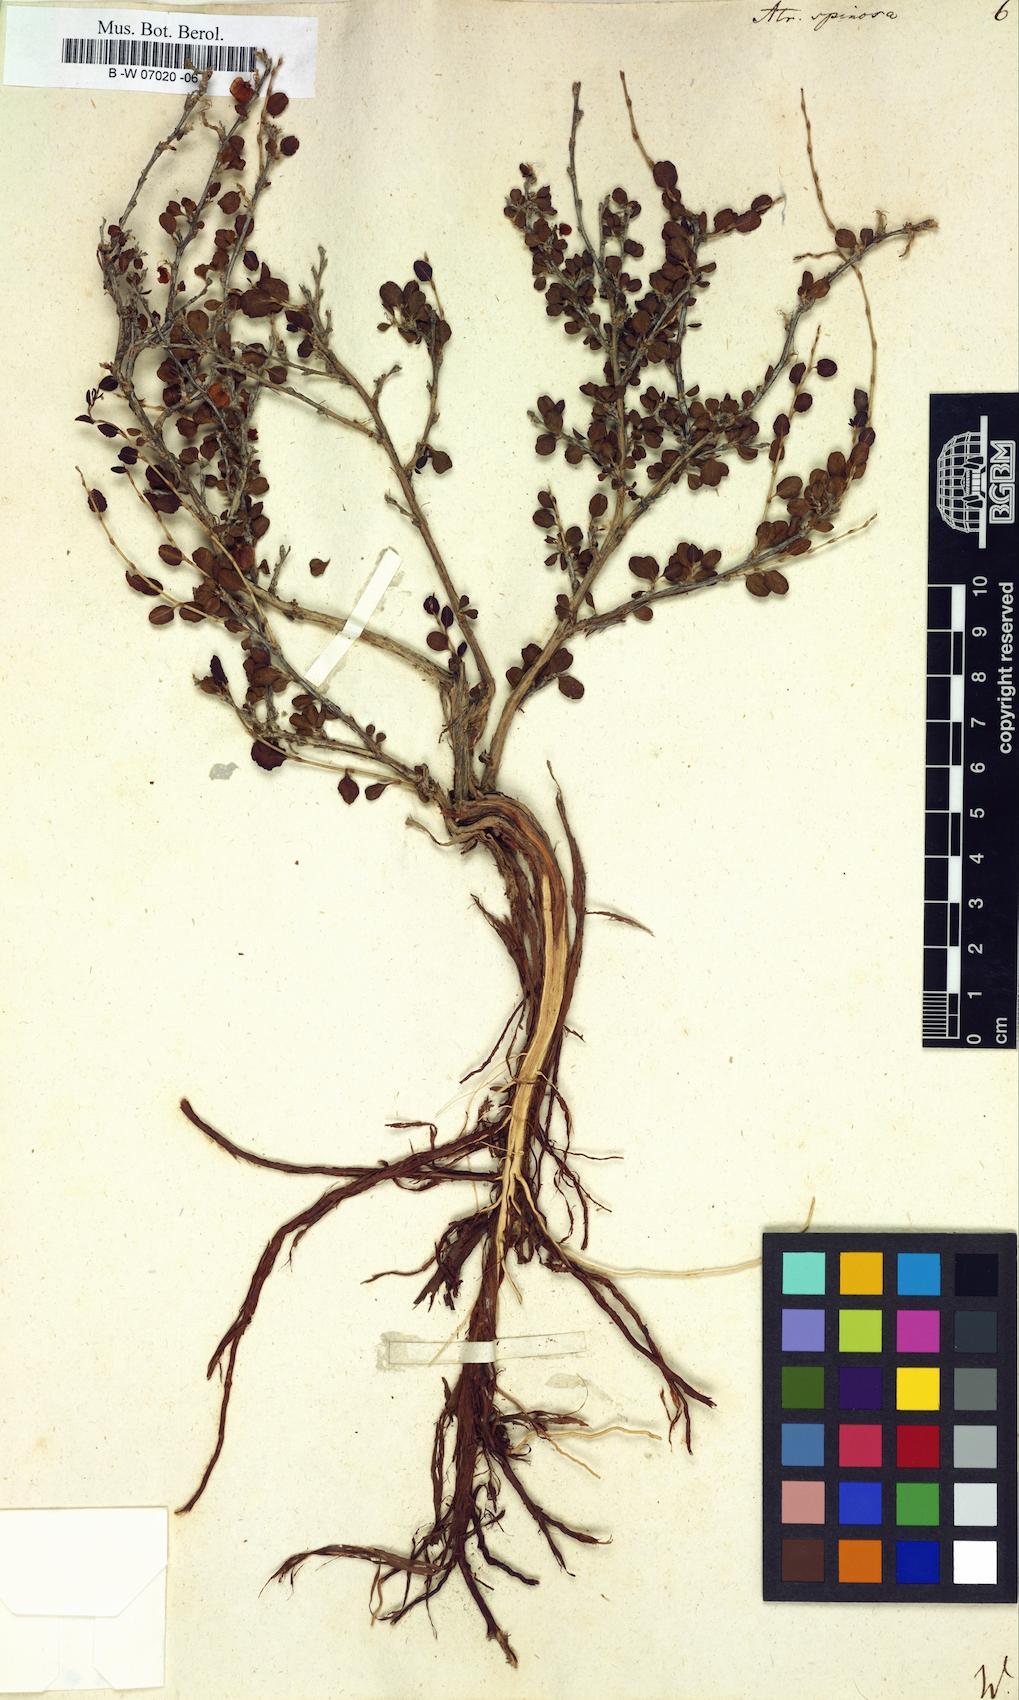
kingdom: Plantae
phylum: Tracheophyta
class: Magnoliopsida
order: Caryophyllales
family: Polygonaceae
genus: Atraphaxis
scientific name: Atraphaxis spinosa
